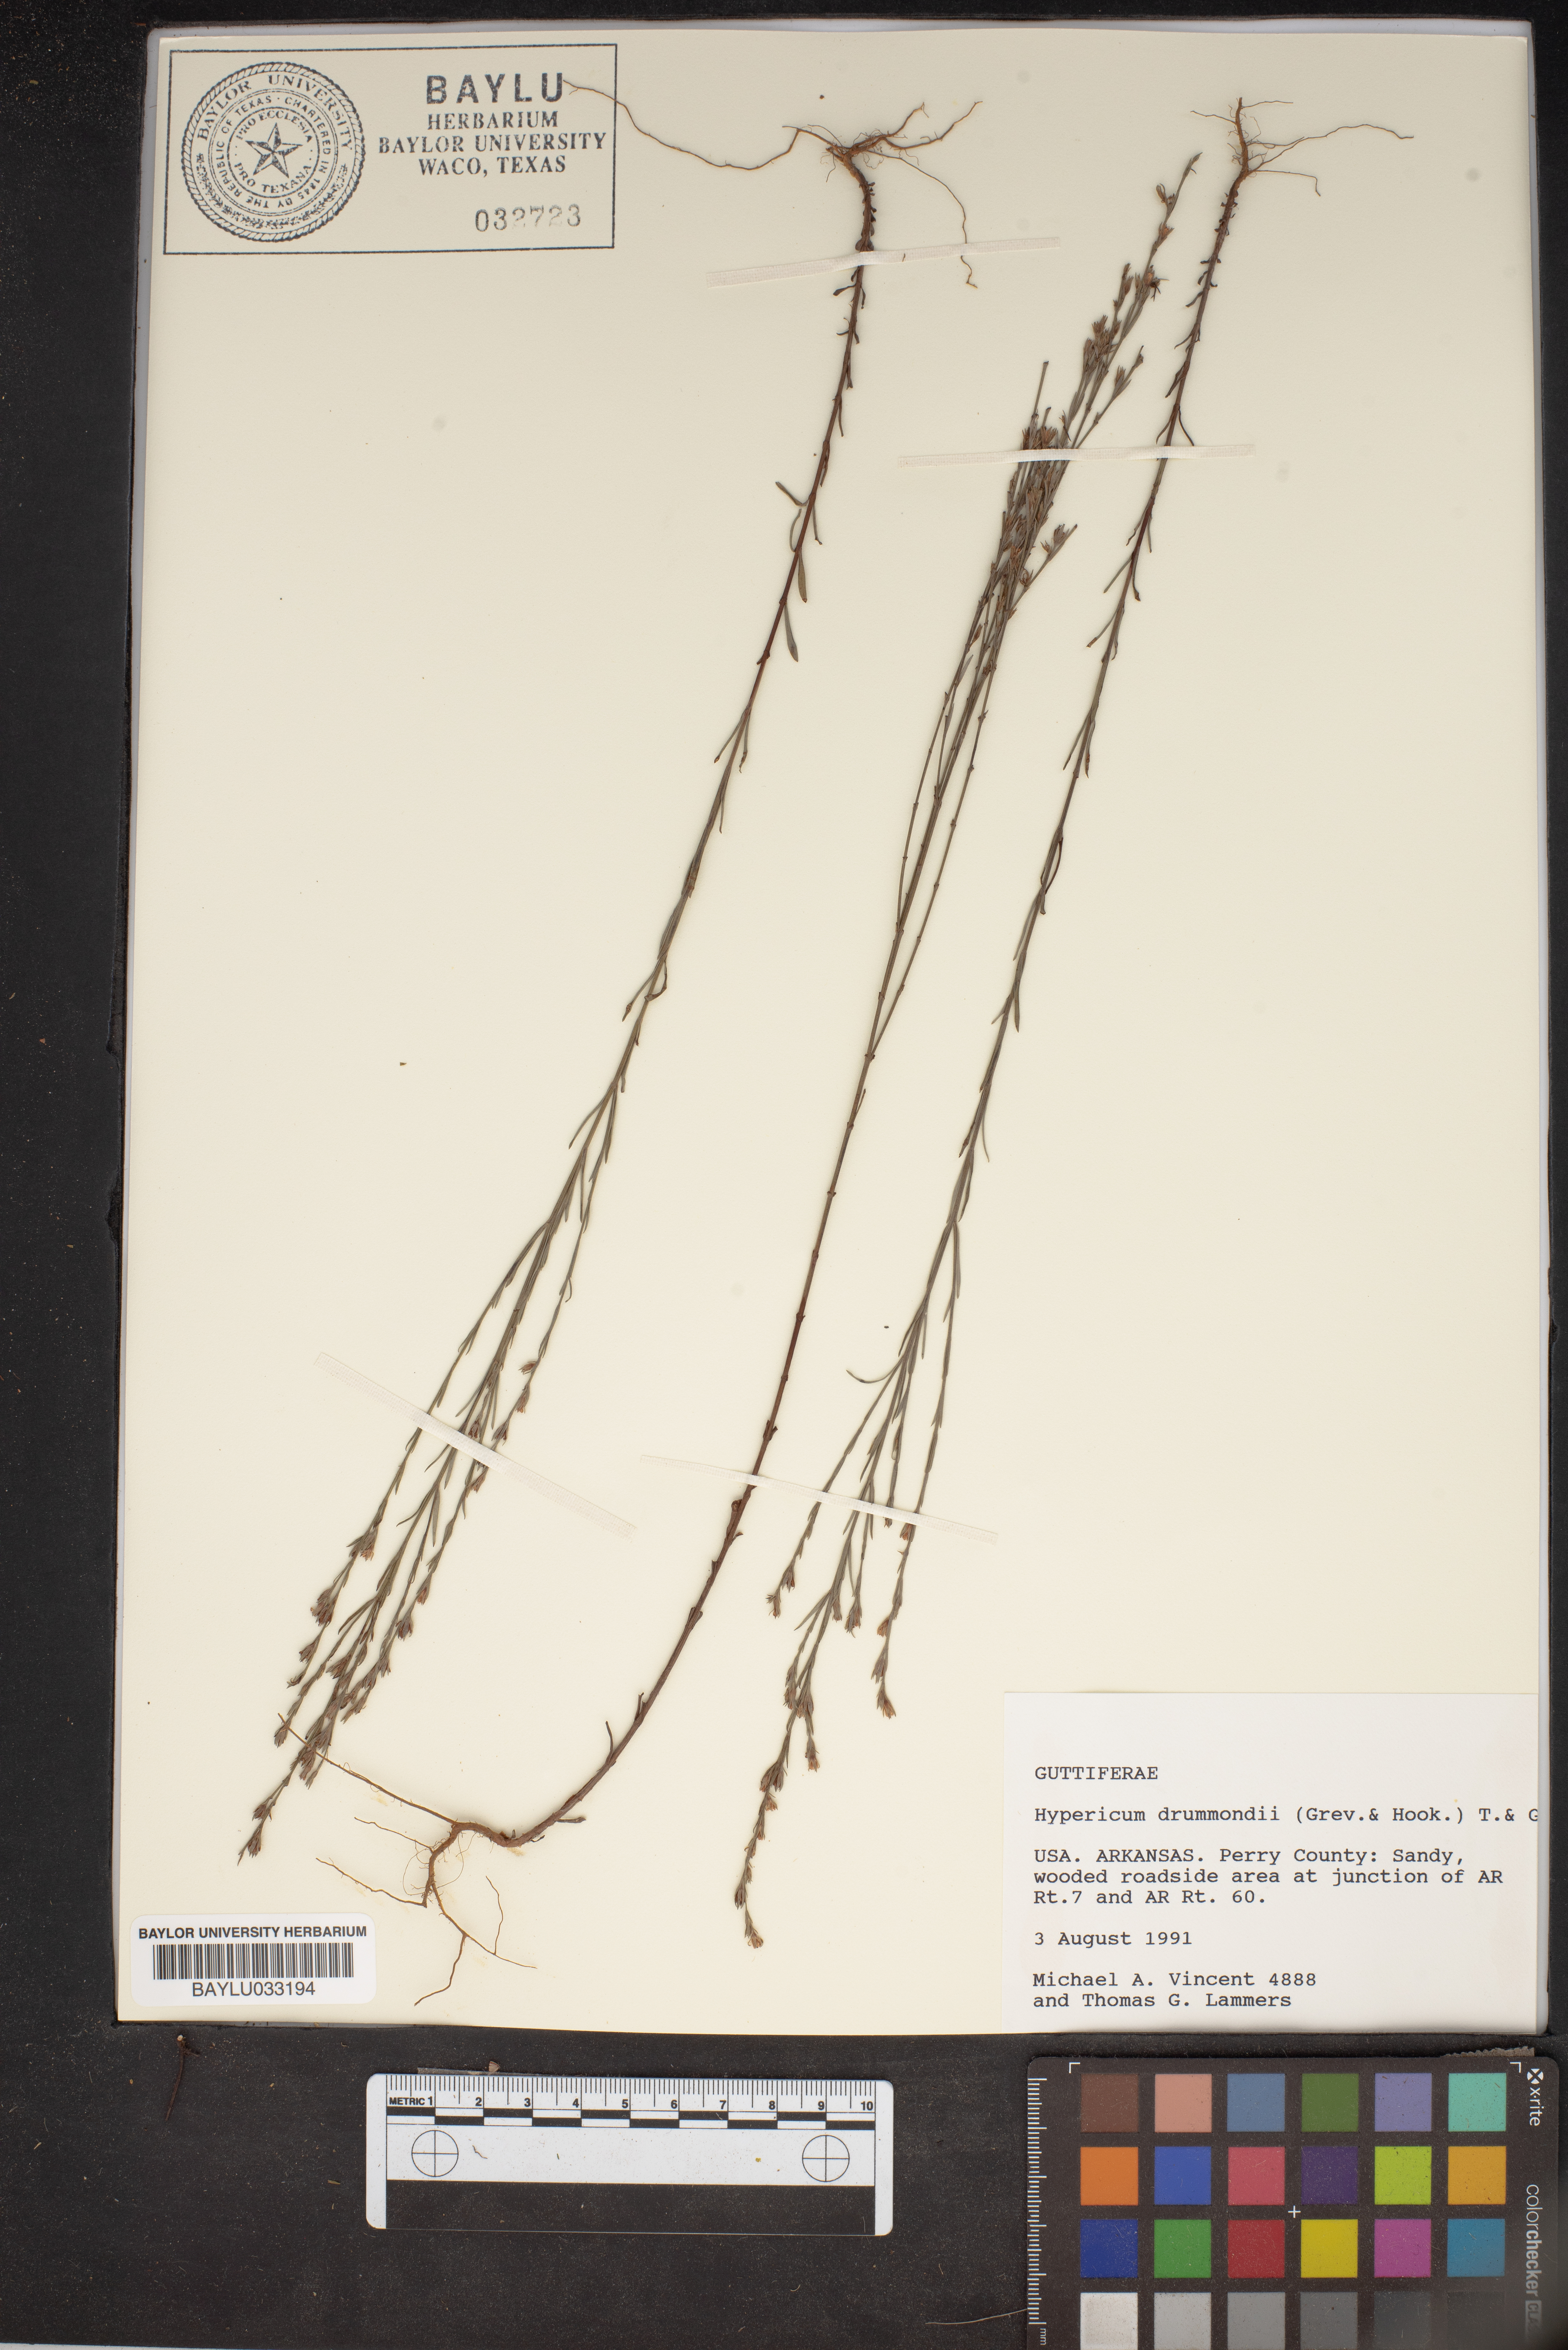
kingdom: Plantae
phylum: Tracheophyta
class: Magnoliopsida
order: Malpighiales
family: Hypericaceae
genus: Hypericum
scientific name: Hypericum drummondii
